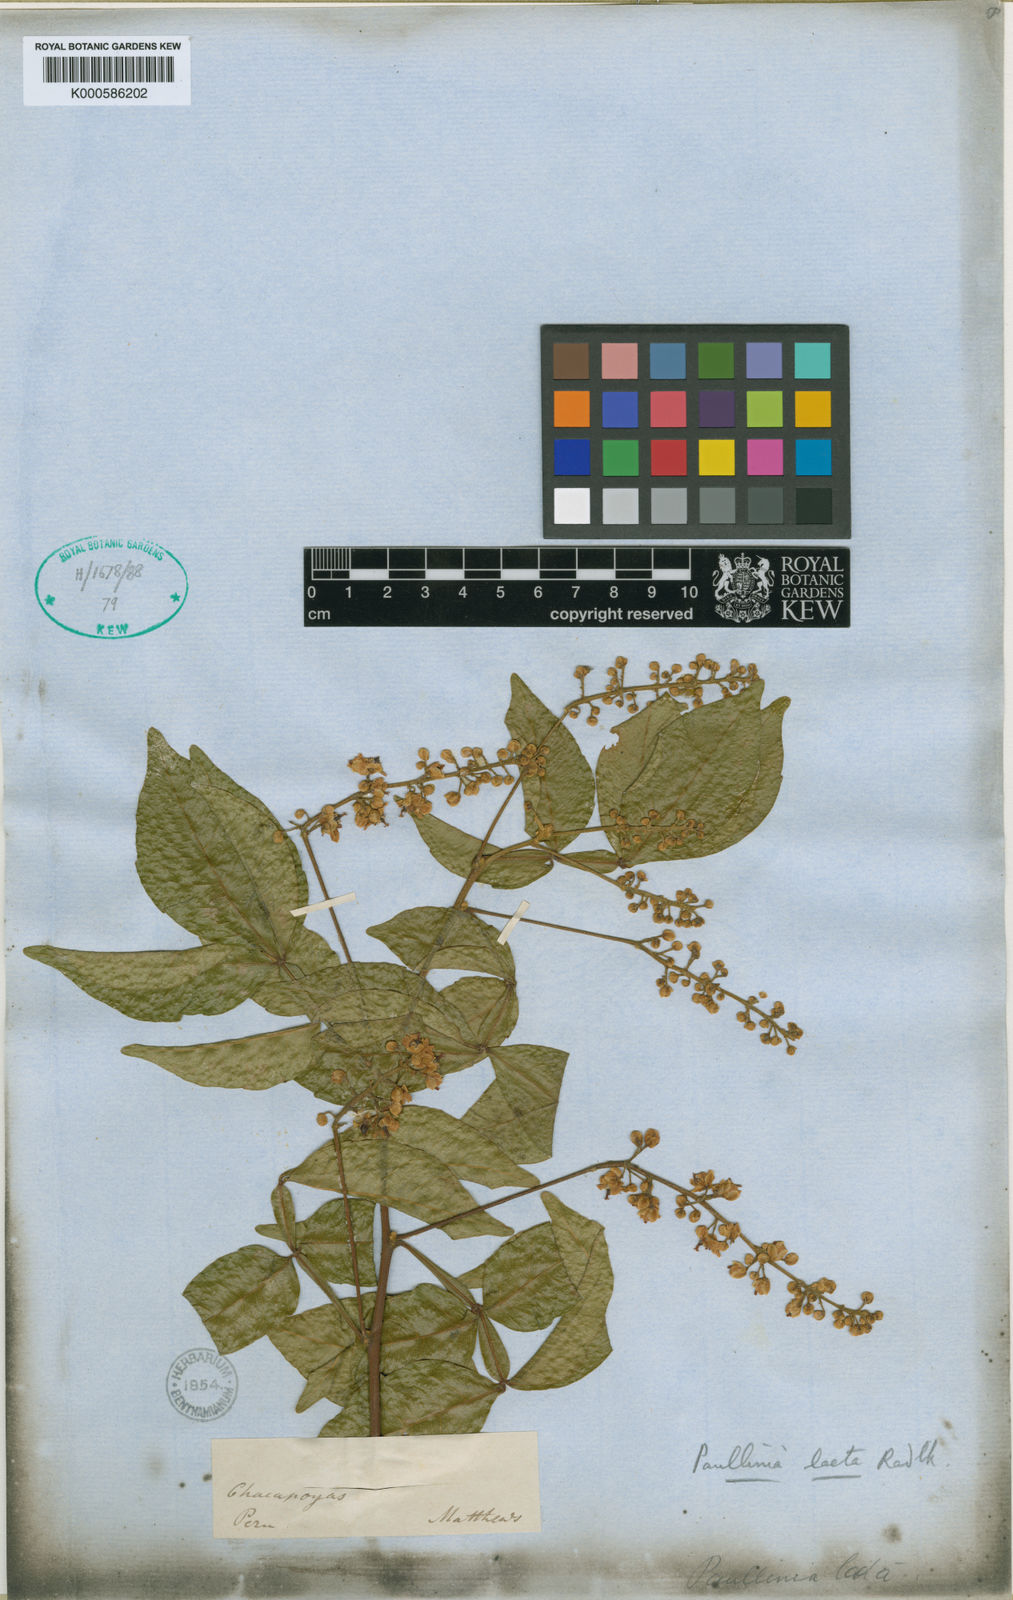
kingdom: Plantae
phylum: Tracheophyta
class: Magnoliopsida
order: Sapindales
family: Sapindaceae
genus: Paullinia
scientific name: Paullinia laeta
